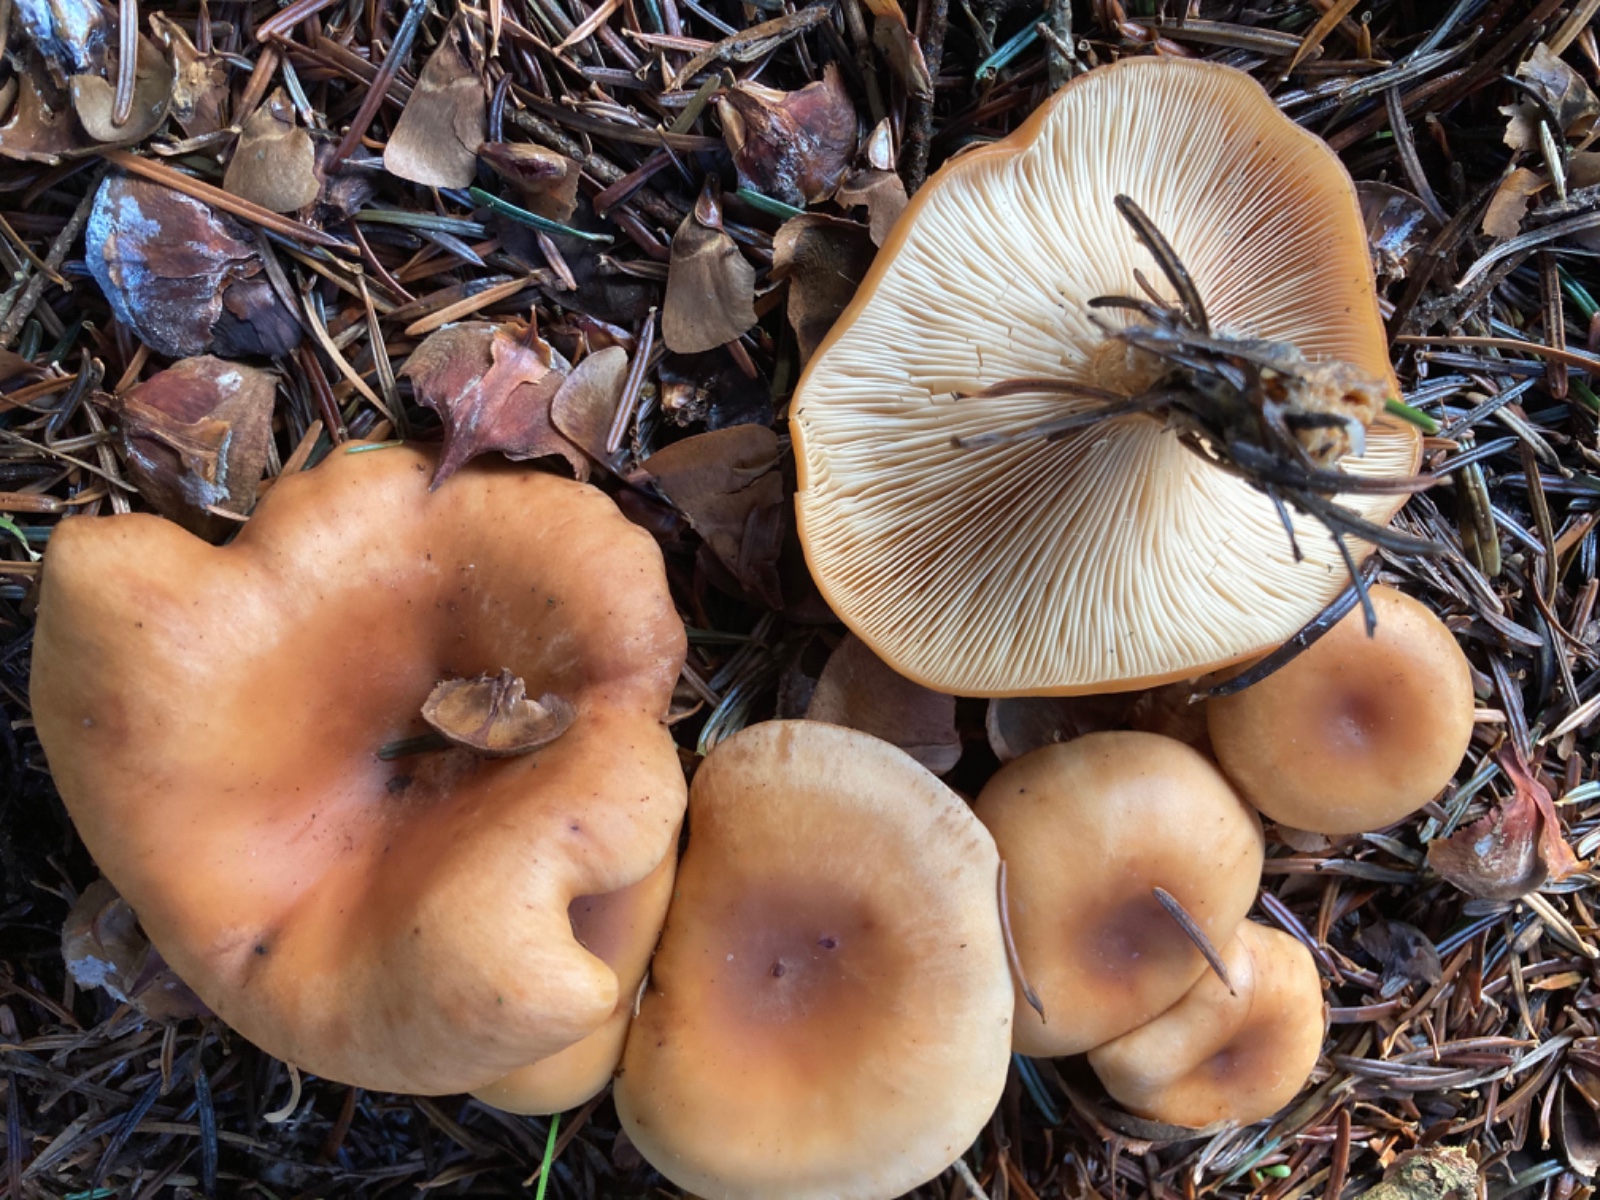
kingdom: Fungi
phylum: Basidiomycota
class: Agaricomycetes
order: Agaricales
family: Tricholomataceae
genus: Paralepista
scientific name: Paralepista flaccida
